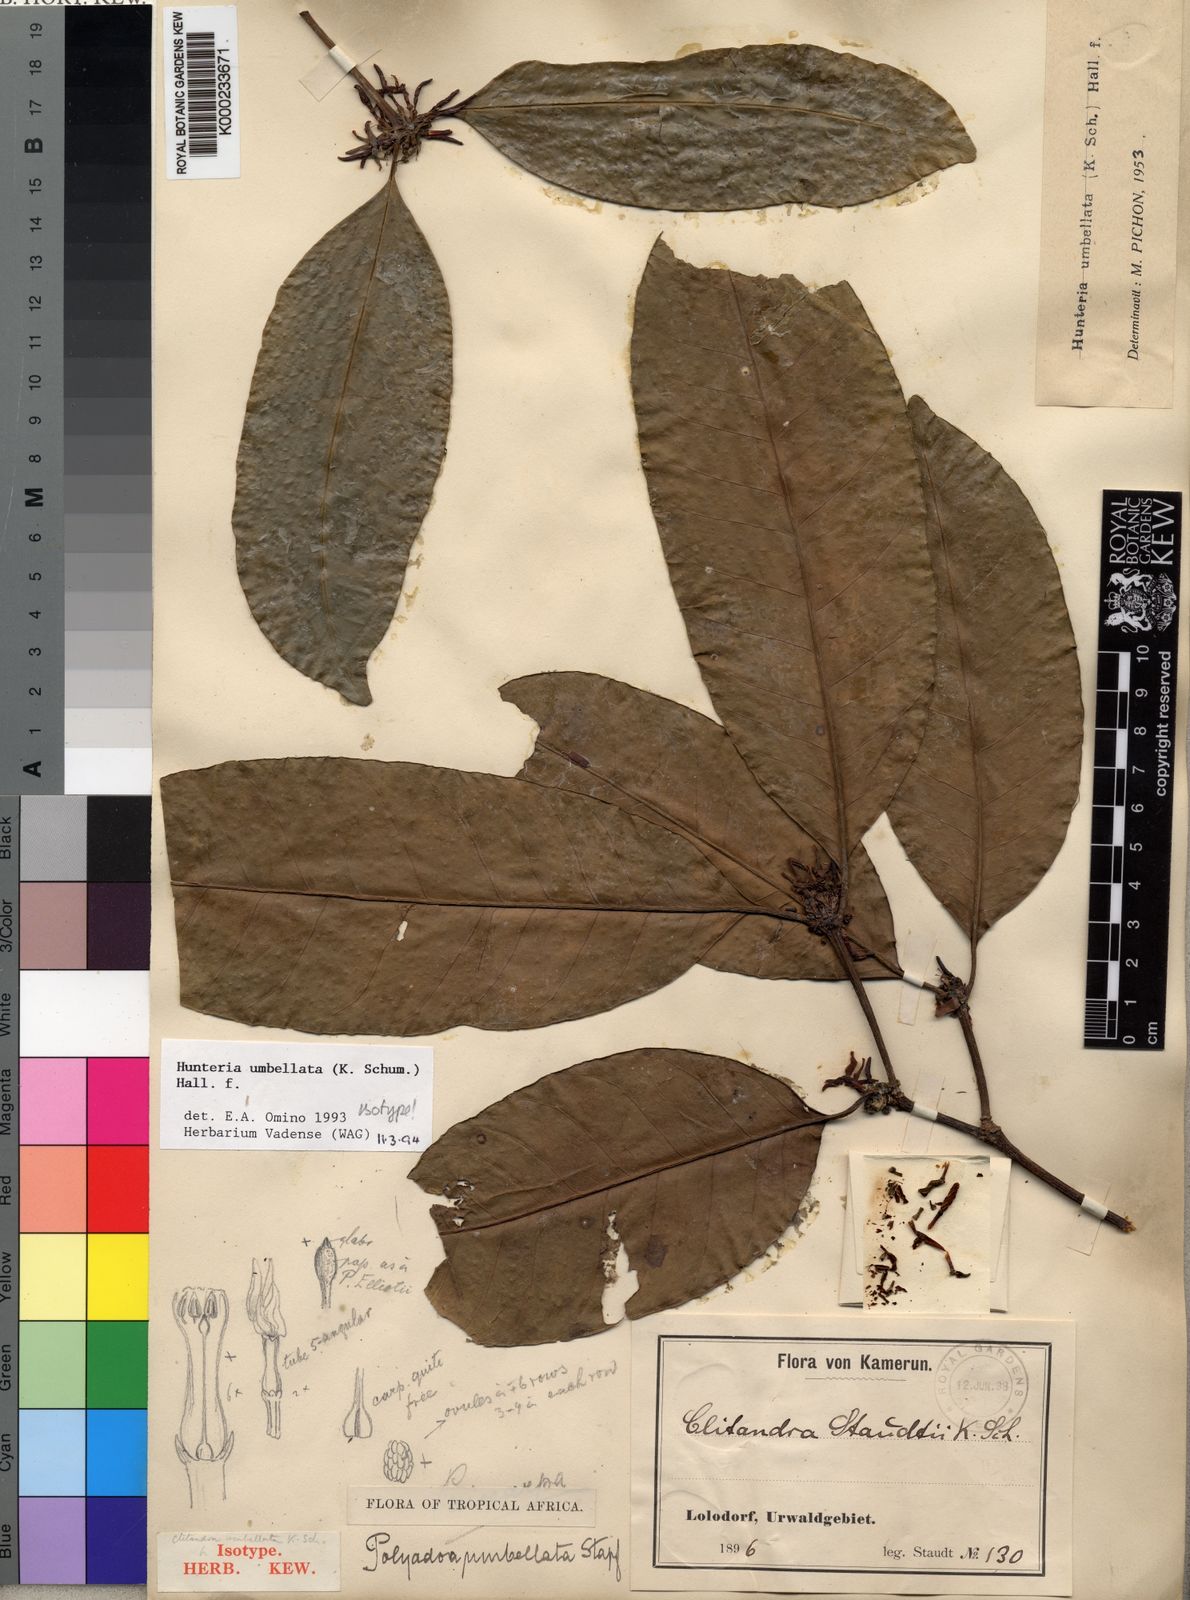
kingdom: Plantae
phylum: Tracheophyta
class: Magnoliopsida
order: Gentianales
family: Apocynaceae
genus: Hunteria
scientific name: Hunteria umbellata
